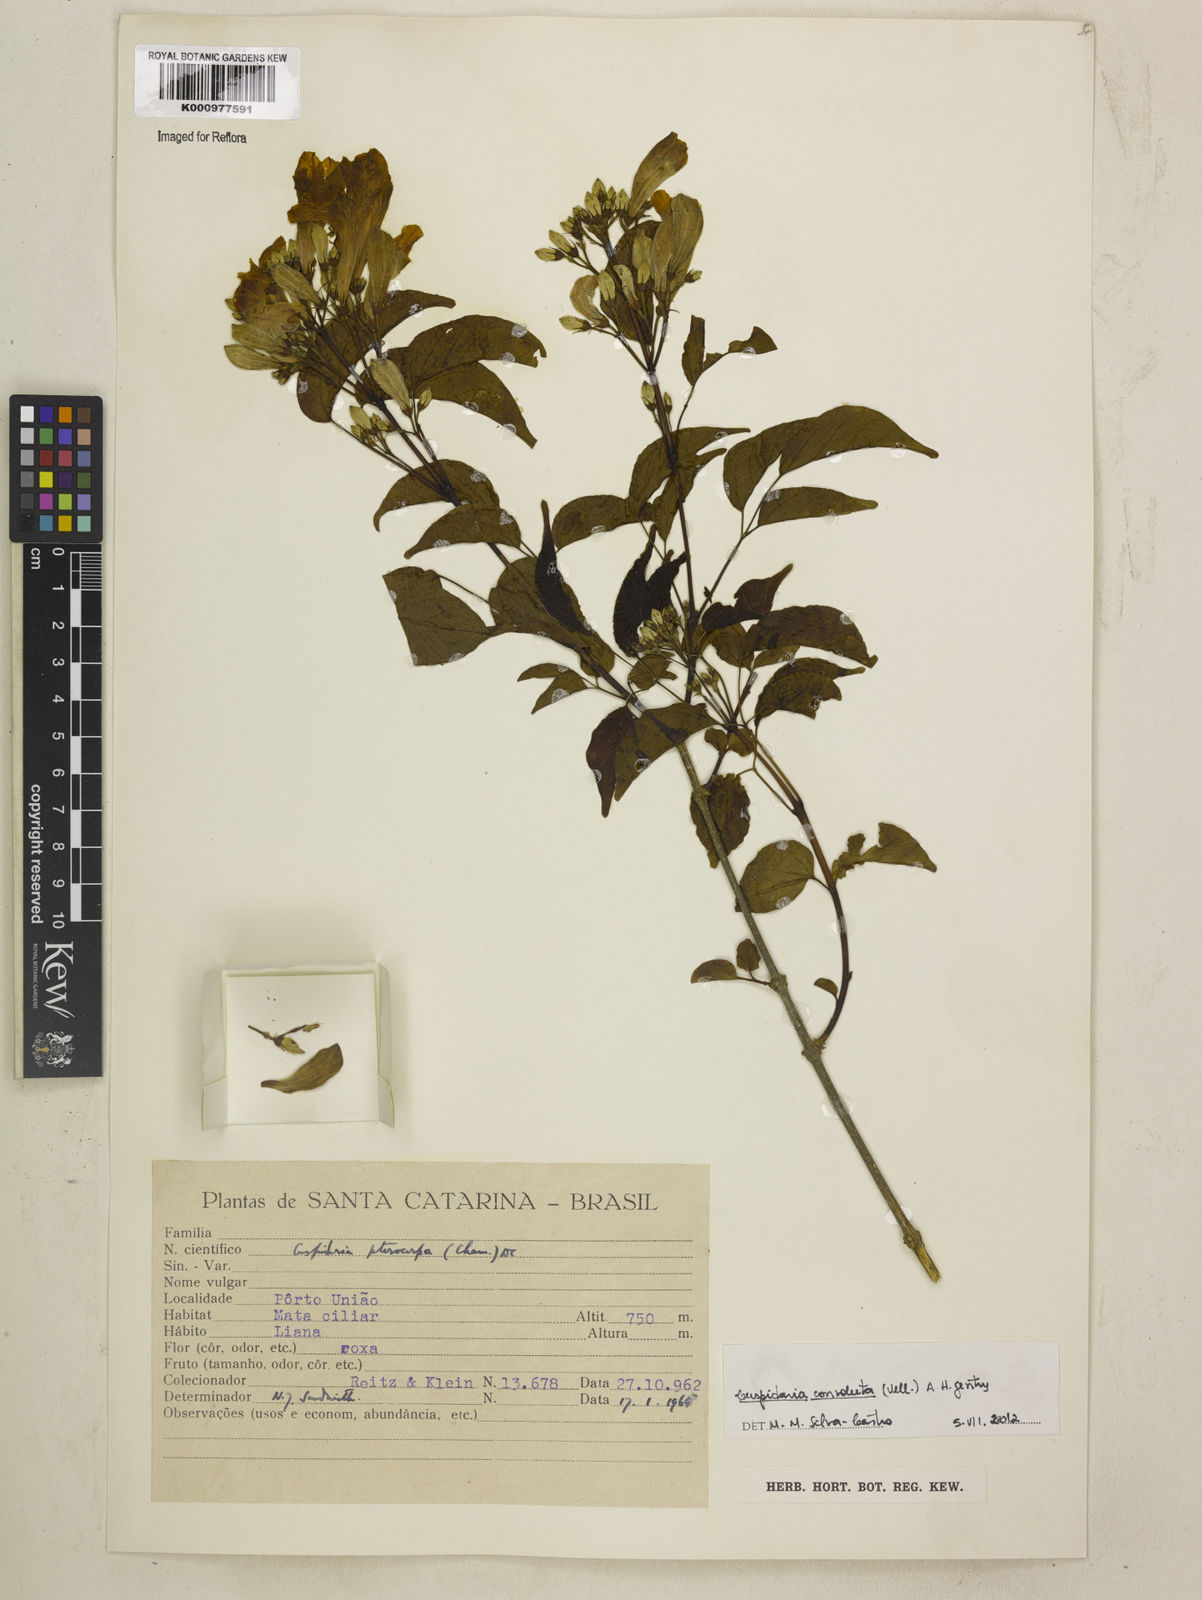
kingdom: Plantae
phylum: Tracheophyta
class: Magnoliopsida
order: Lamiales
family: Bignoniaceae
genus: Cuspidaria
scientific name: Cuspidaria convoluta
